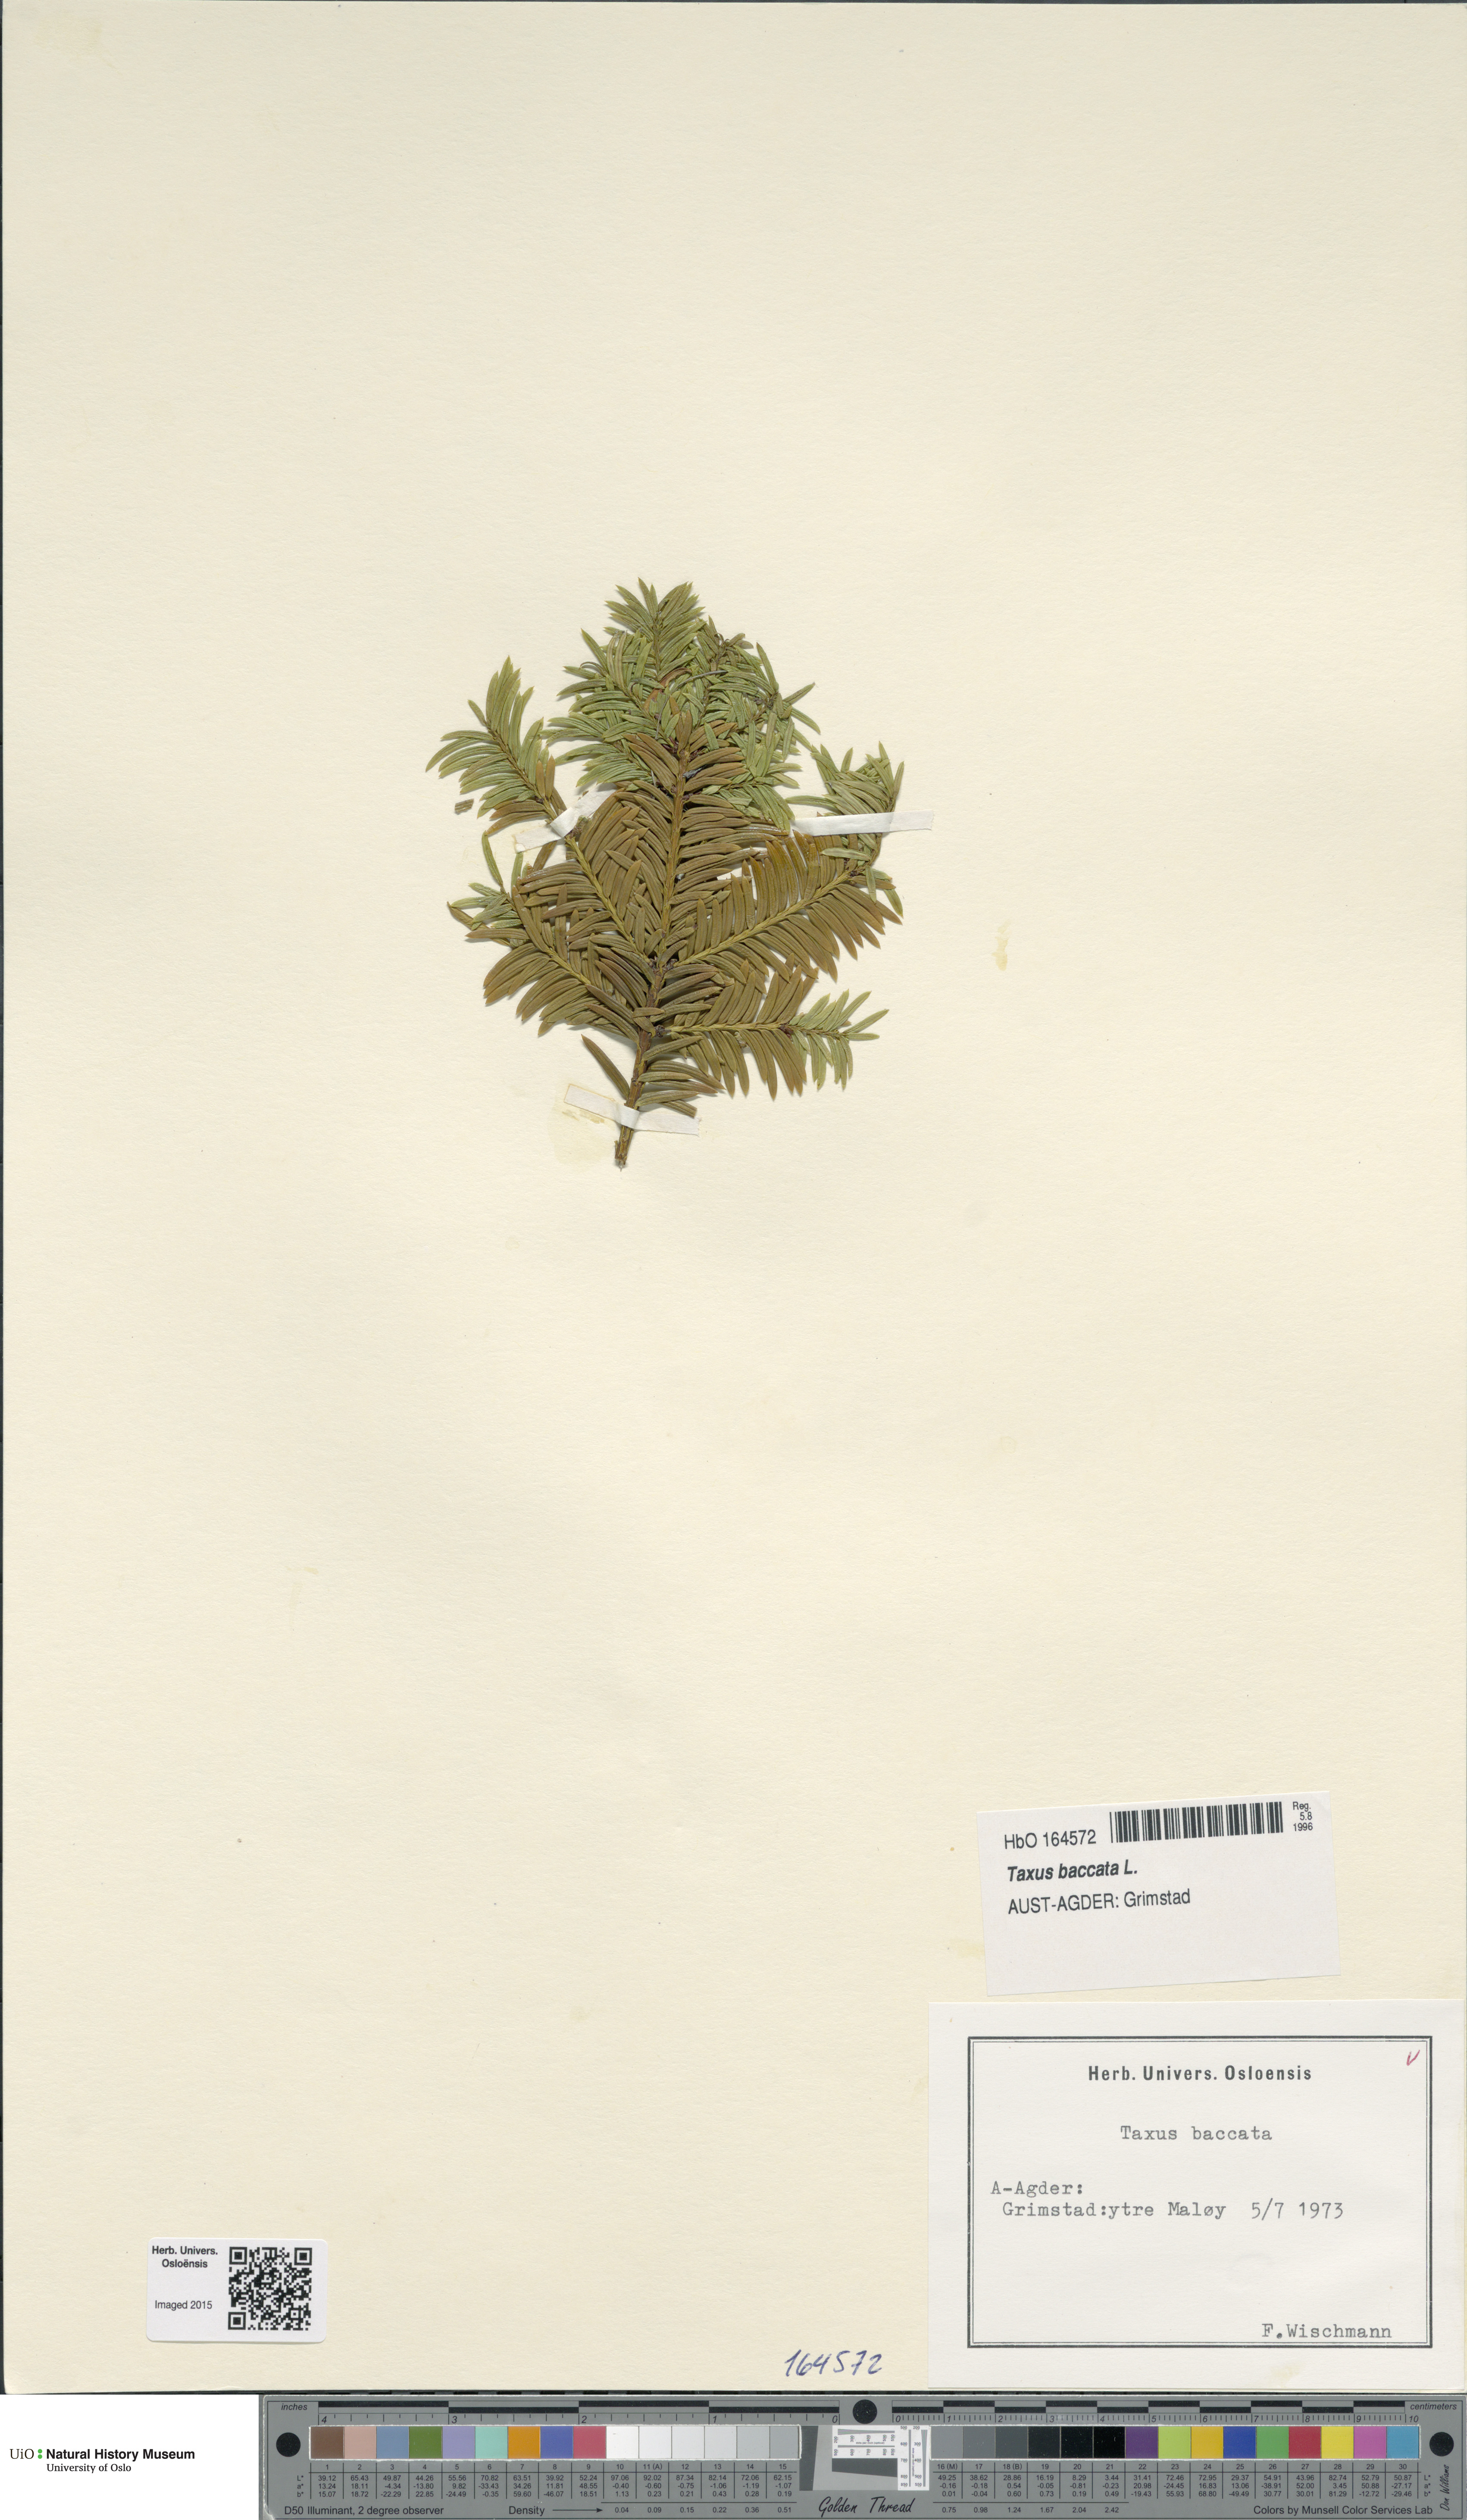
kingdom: Plantae
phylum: Tracheophyta
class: Pinopsida
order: Pinales
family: Taxaceae
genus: Taxus
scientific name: Taxus baccata
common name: Yew
